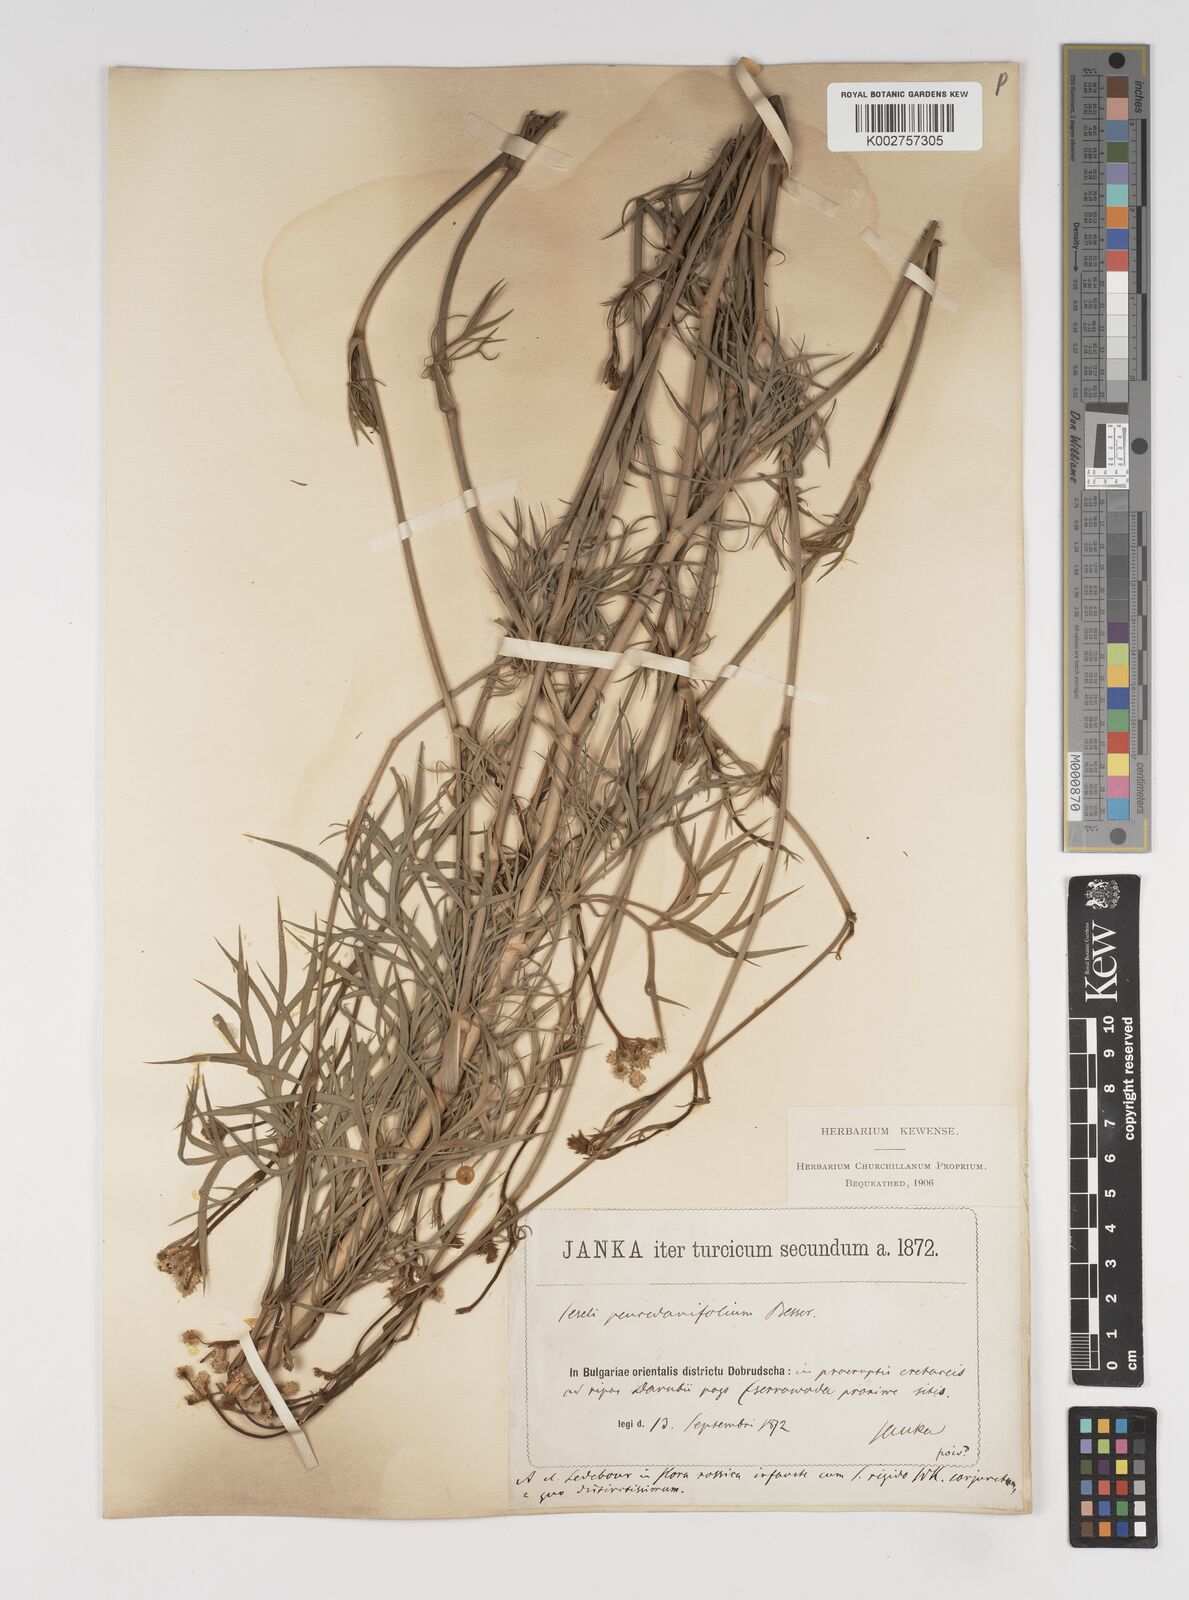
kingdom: Plantae
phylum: Tracheophyta
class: Magnoliopsida
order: Apiales
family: Apiaceae
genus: Seseli
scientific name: Seseli besserianum
